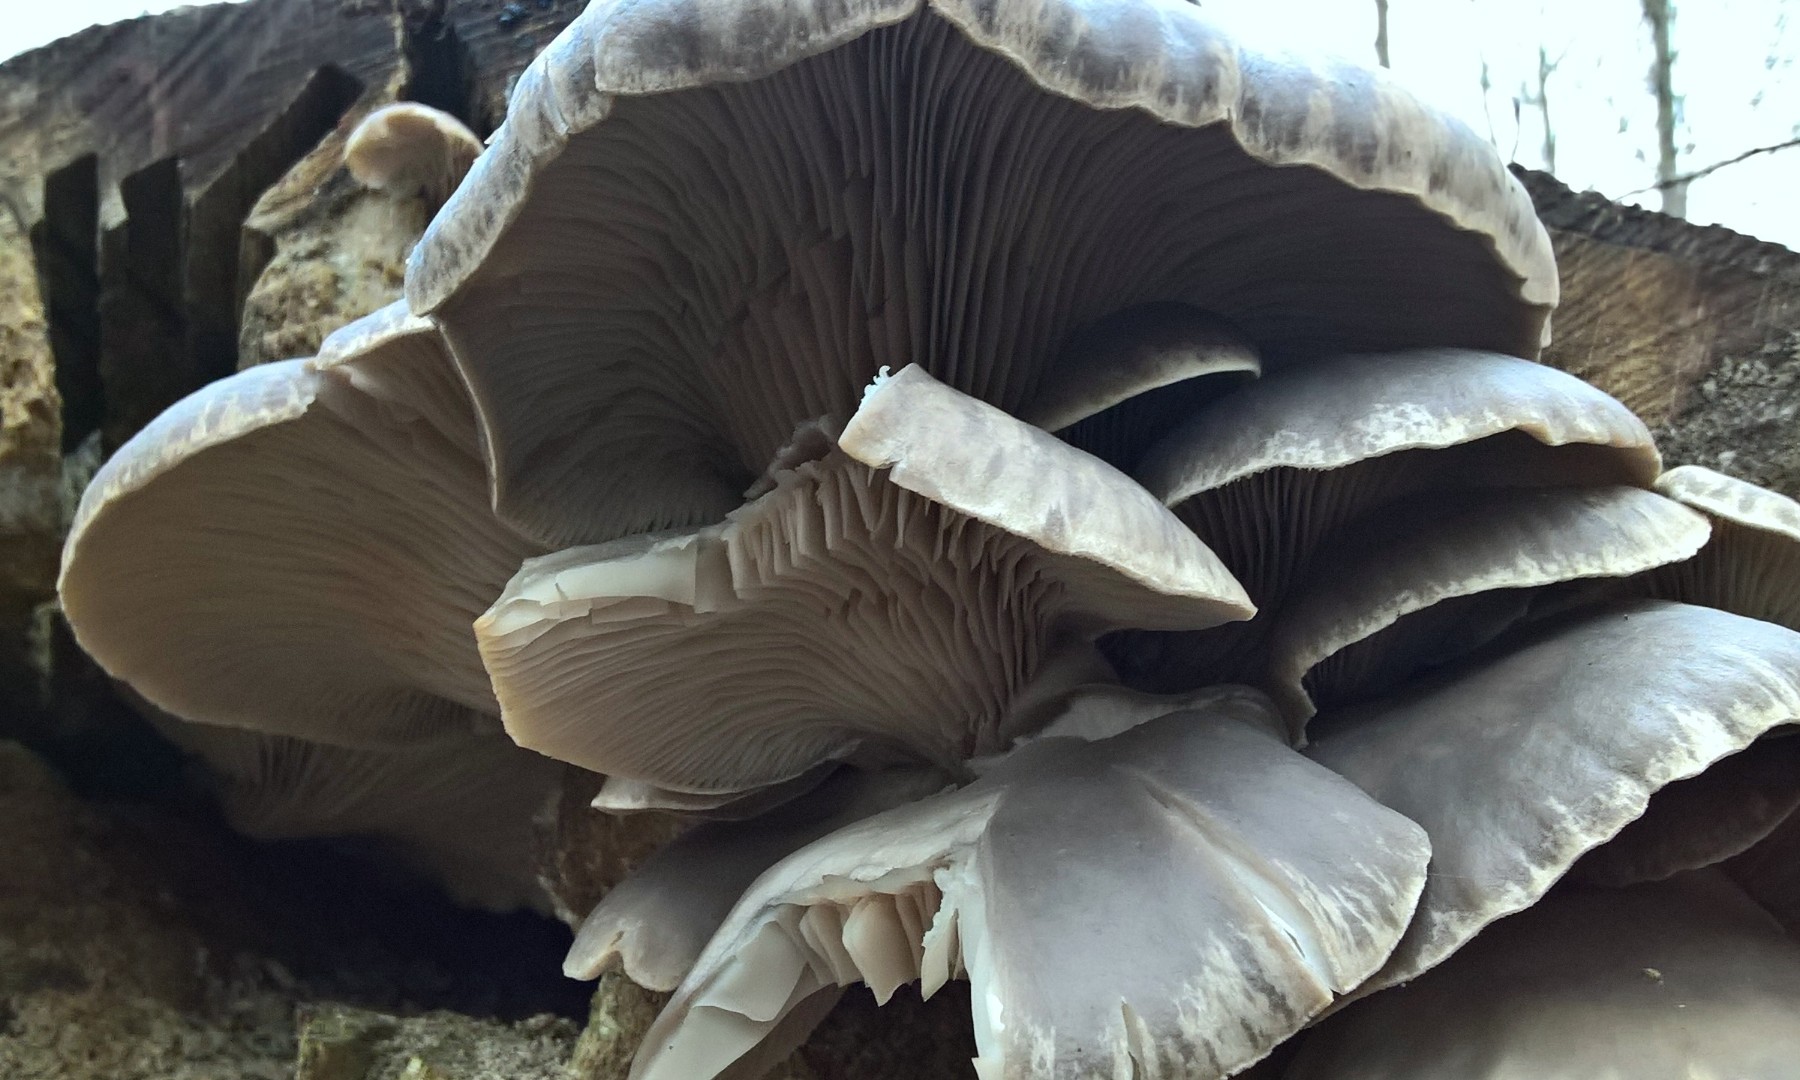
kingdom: Fungi
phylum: Basidiomycota
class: Agaricomycetes
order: Agaricales
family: Pleurotaceae
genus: Pleurotus
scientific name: Pleurotus ostreatus
